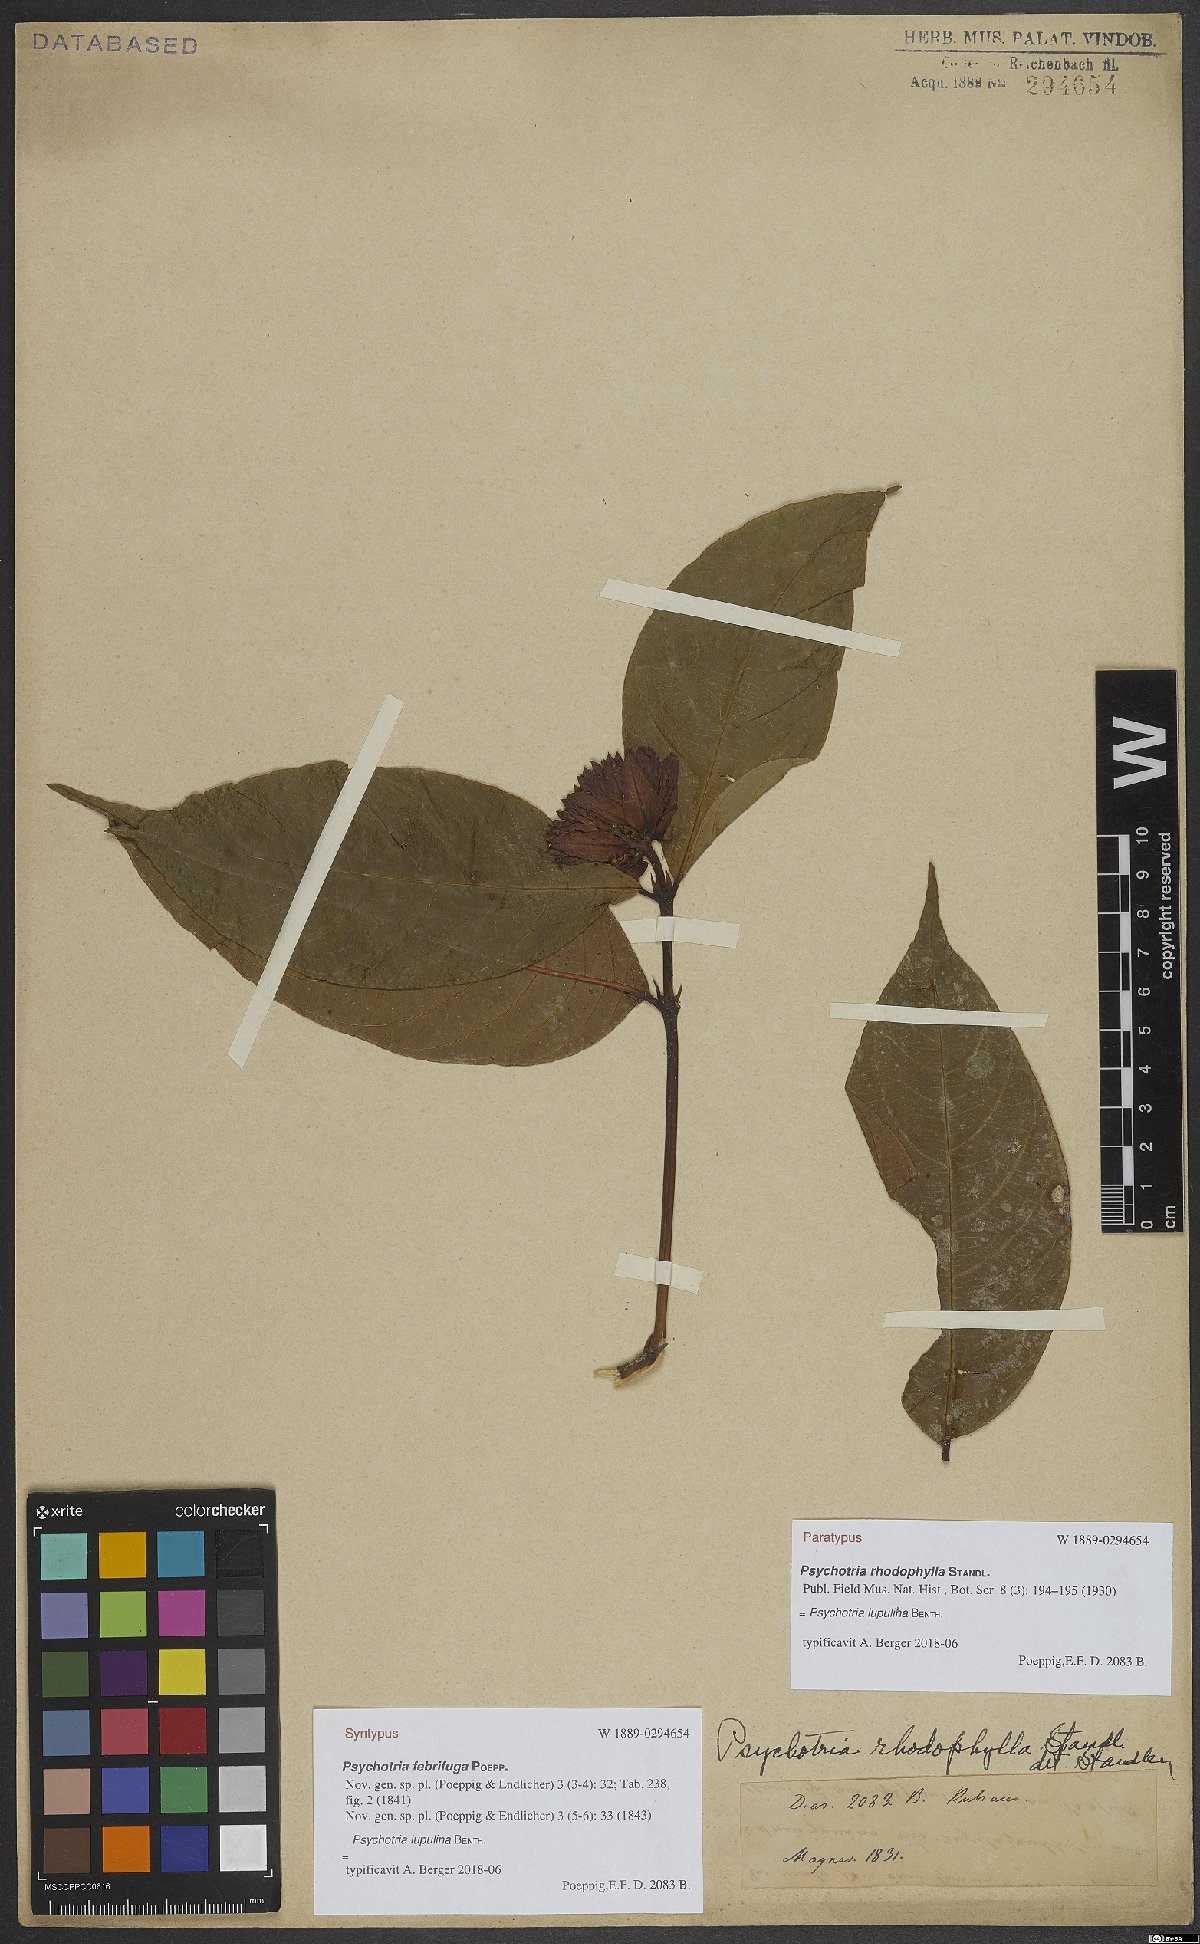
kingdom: Plantae
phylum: Tracheophyta
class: Magnoliopsida
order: Gentianales
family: Rubiaceae
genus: Palicourea
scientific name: Palicourea justiciifolia
